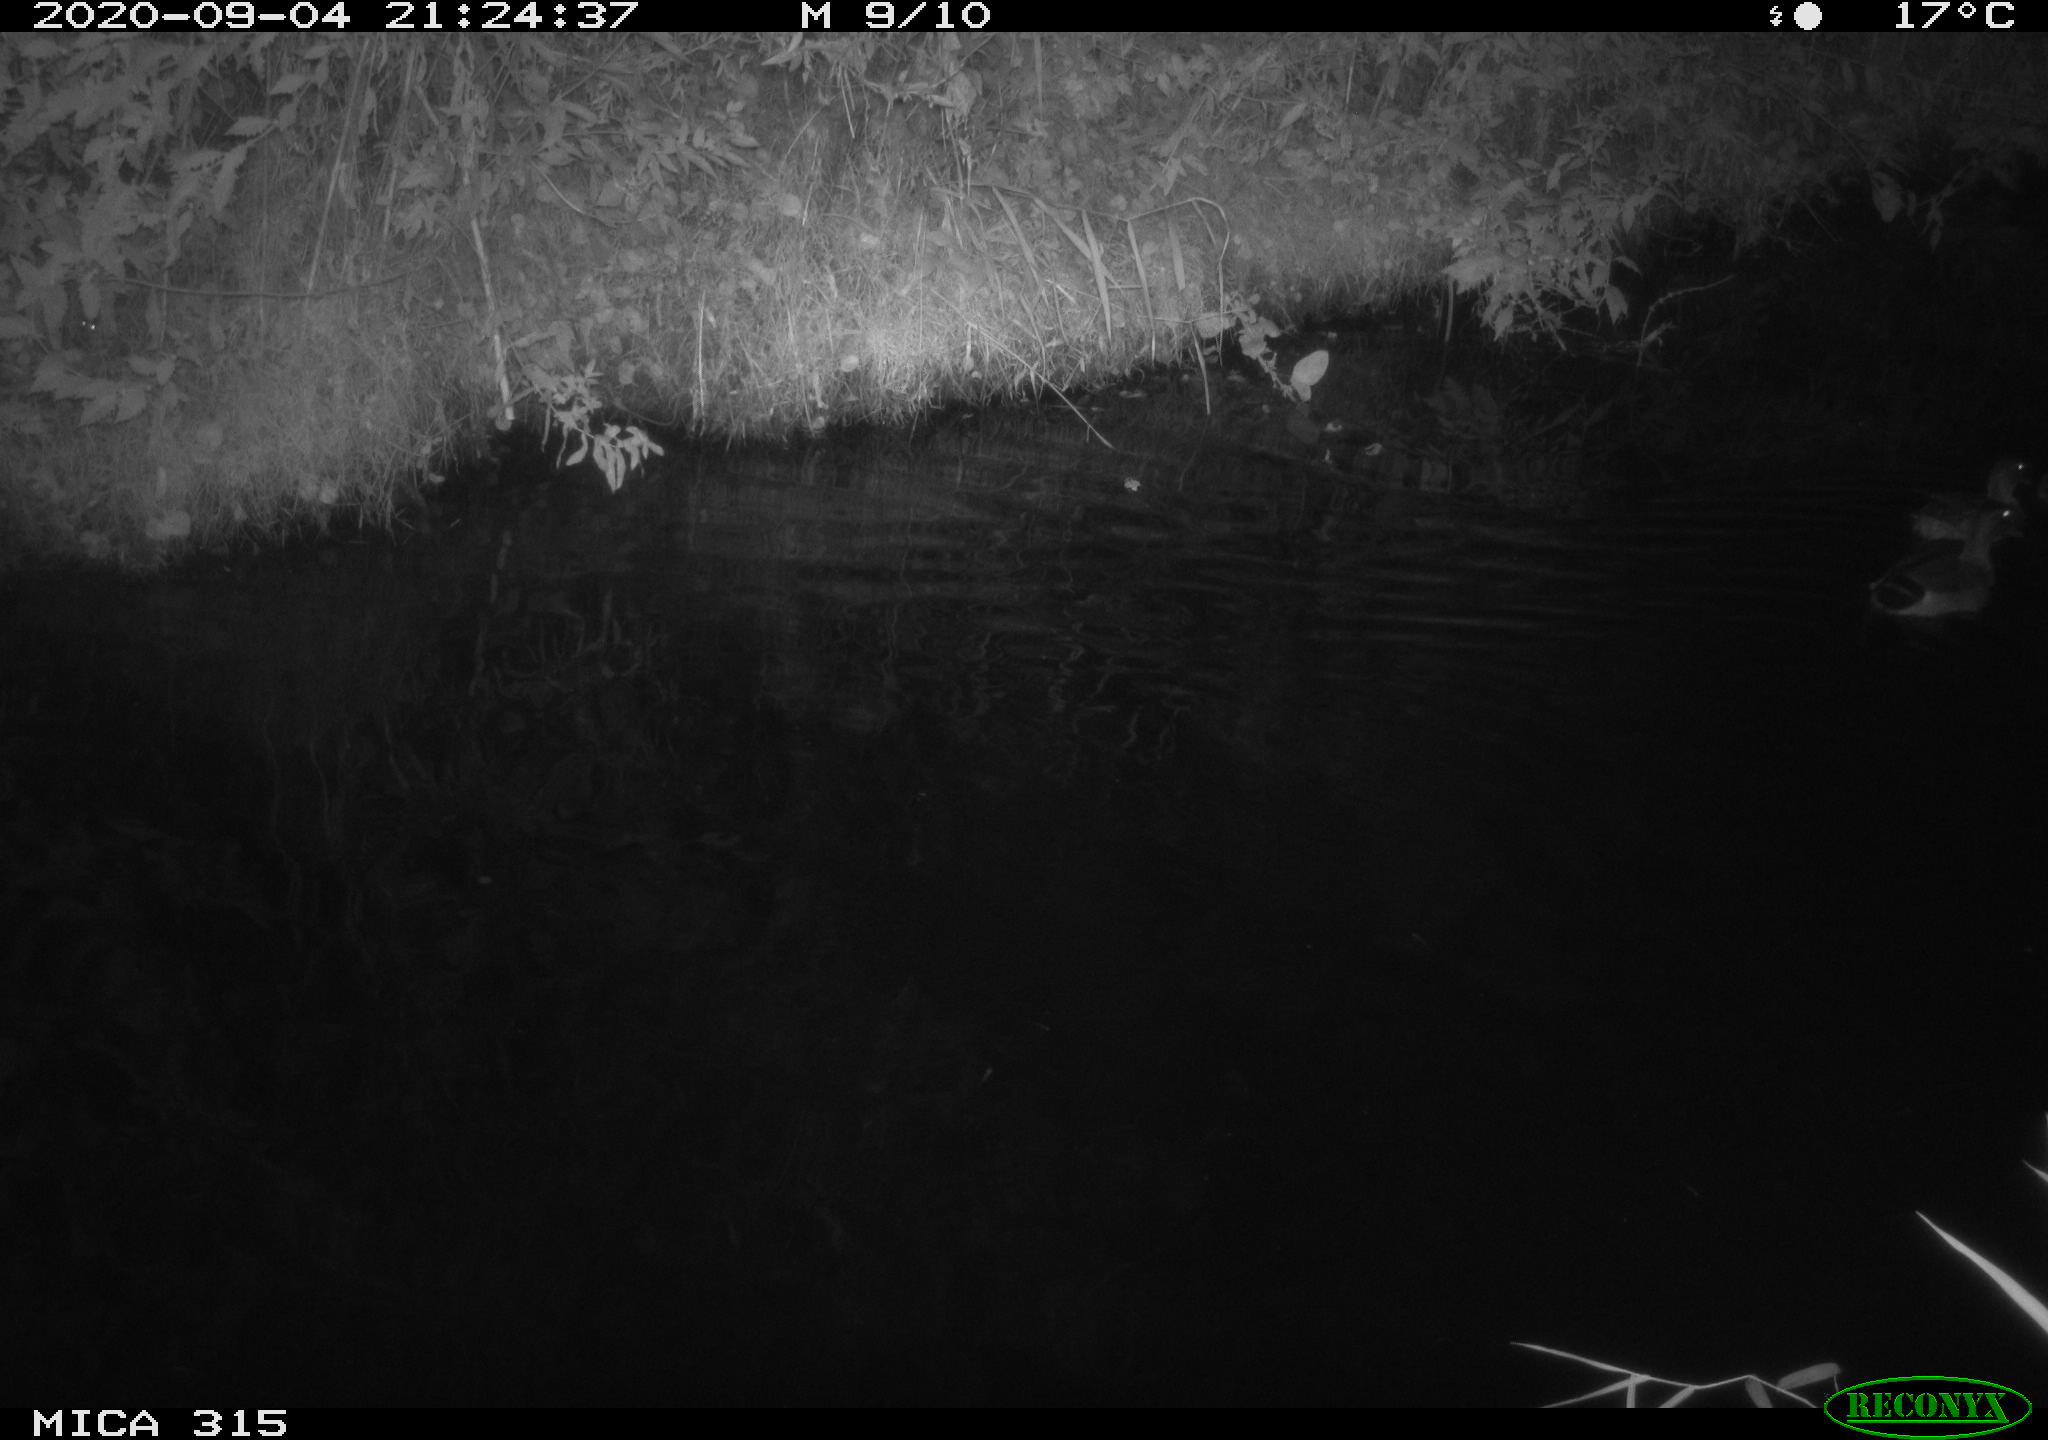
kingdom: Animalia
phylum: Chordata
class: Aves
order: Anseriformes
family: Anatidae
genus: Anas
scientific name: Anas platyrhynchos
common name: Mallard
